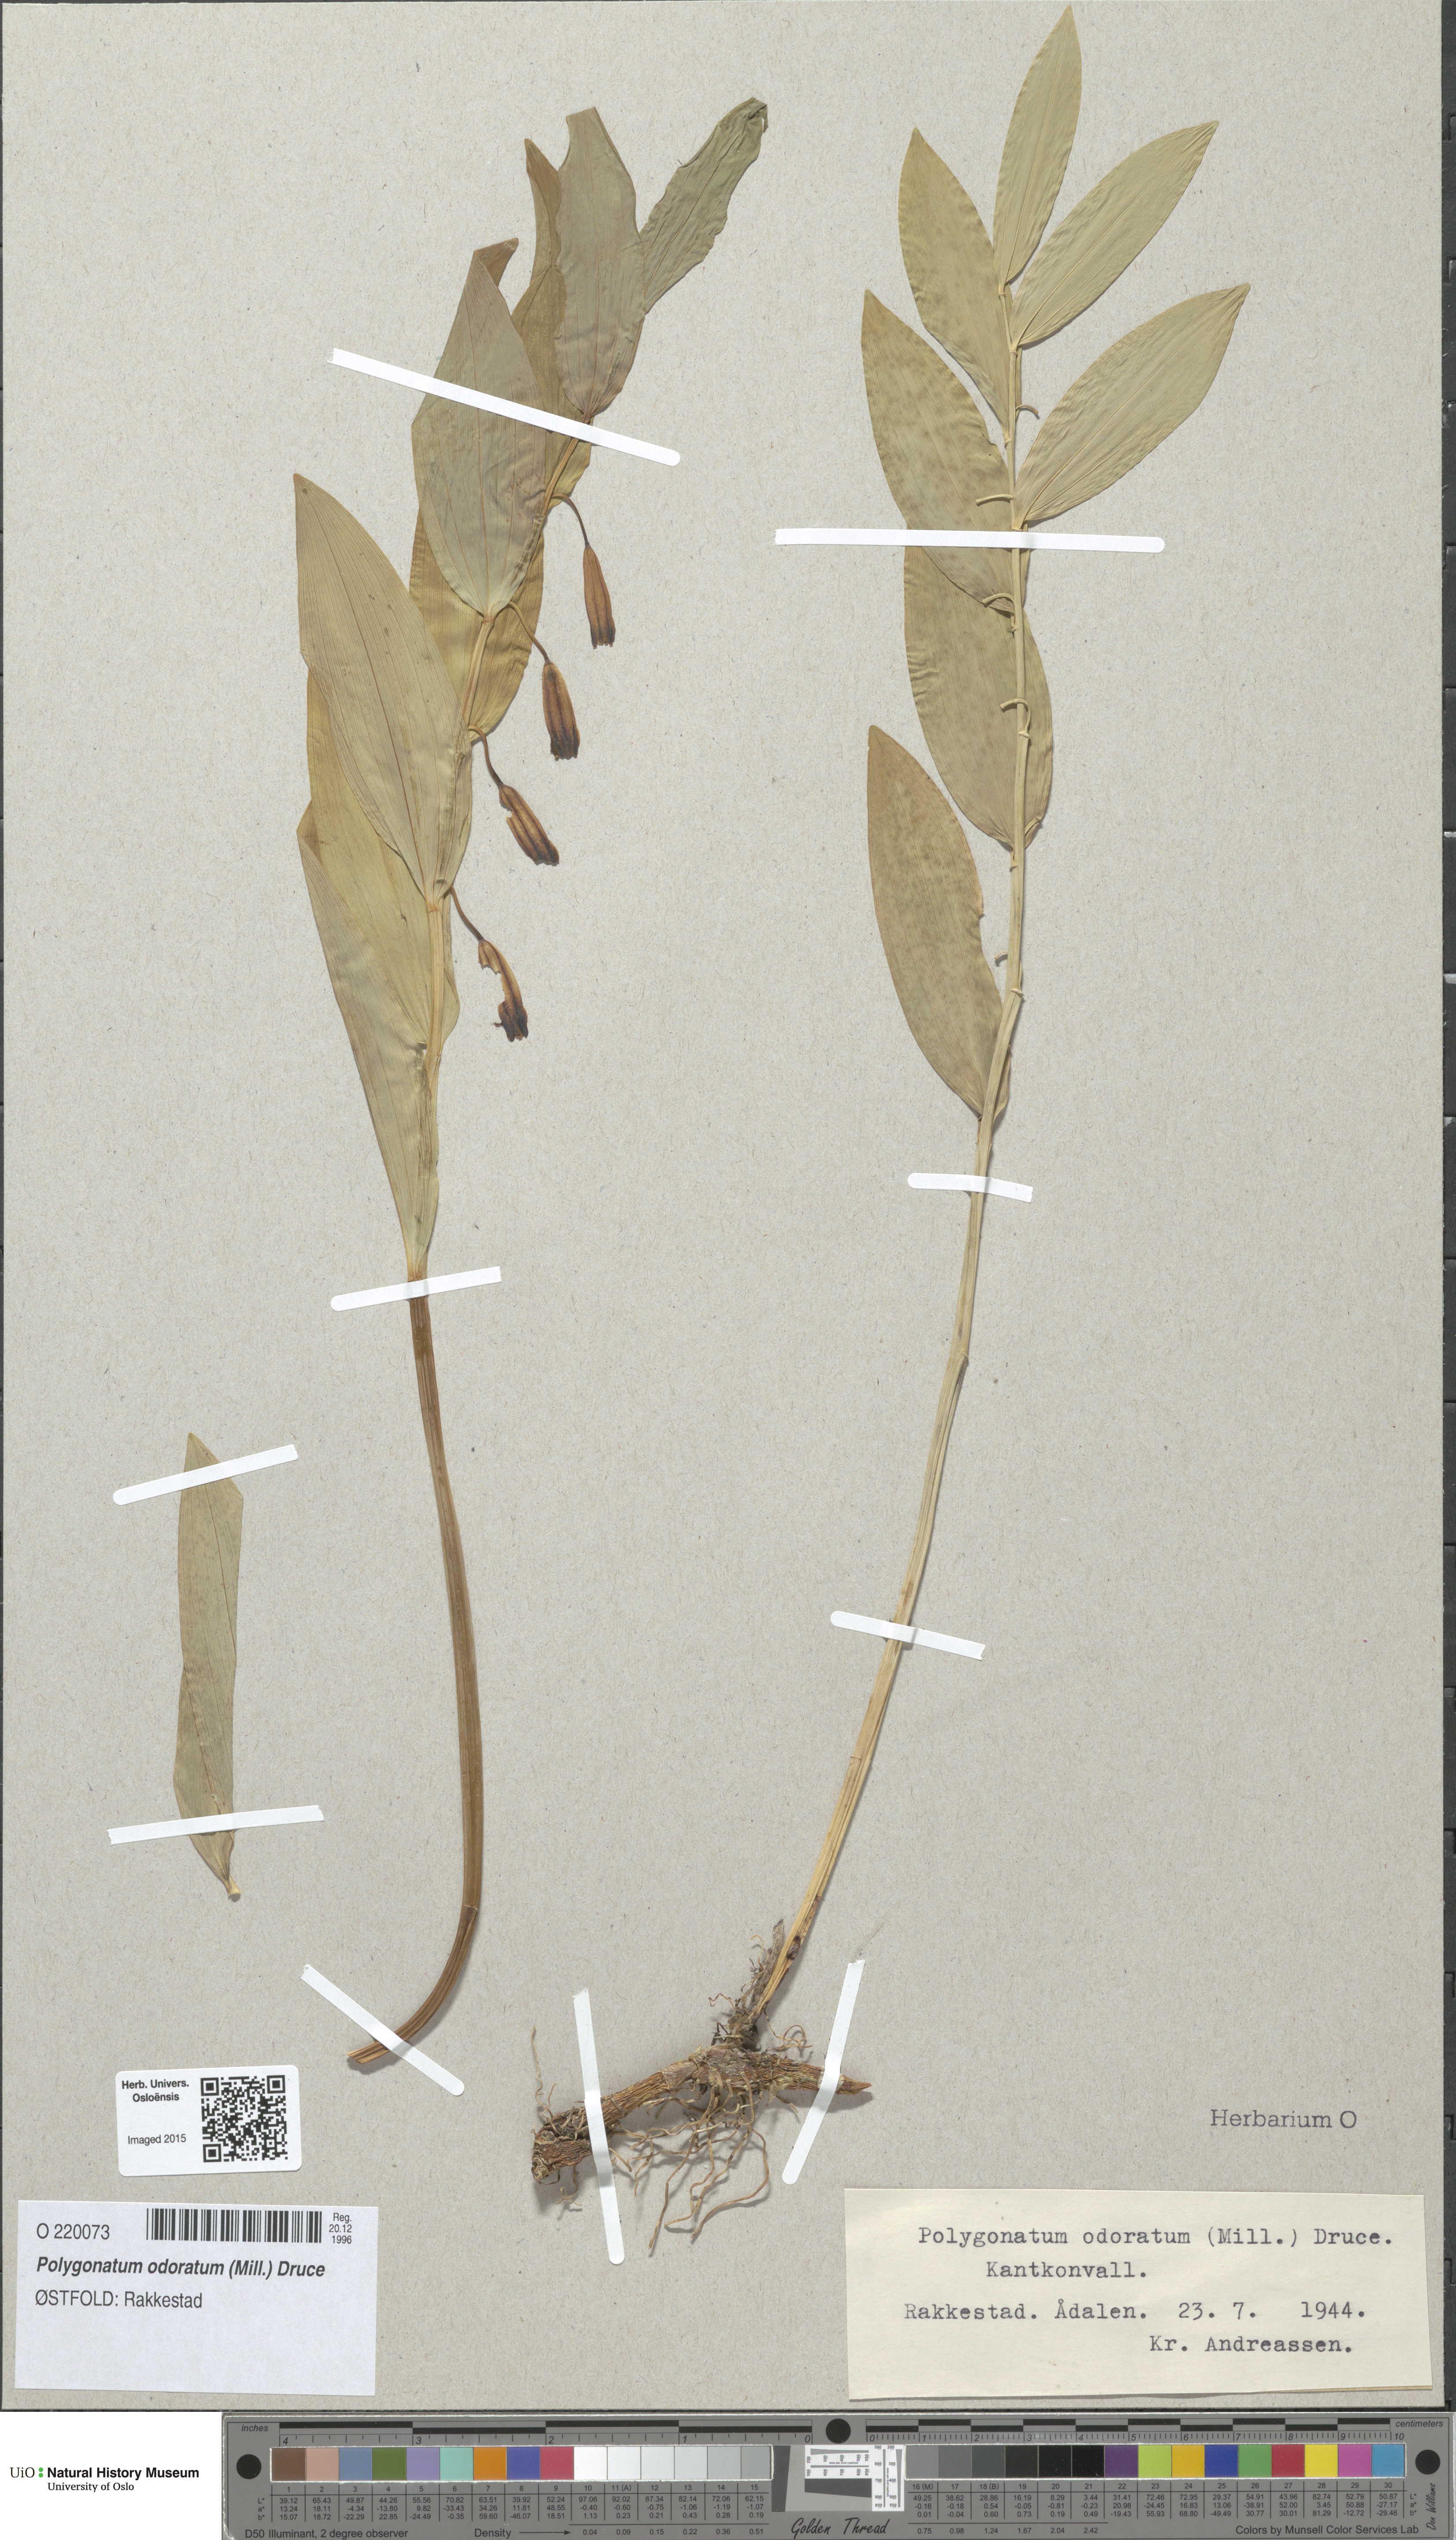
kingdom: Plantae
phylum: Tracheophyta
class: Liliopsida
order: Asparagales
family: Asparagaceae
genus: Polygonatum
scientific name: Polygonatum odoratum
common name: Angular solomon's-seal
